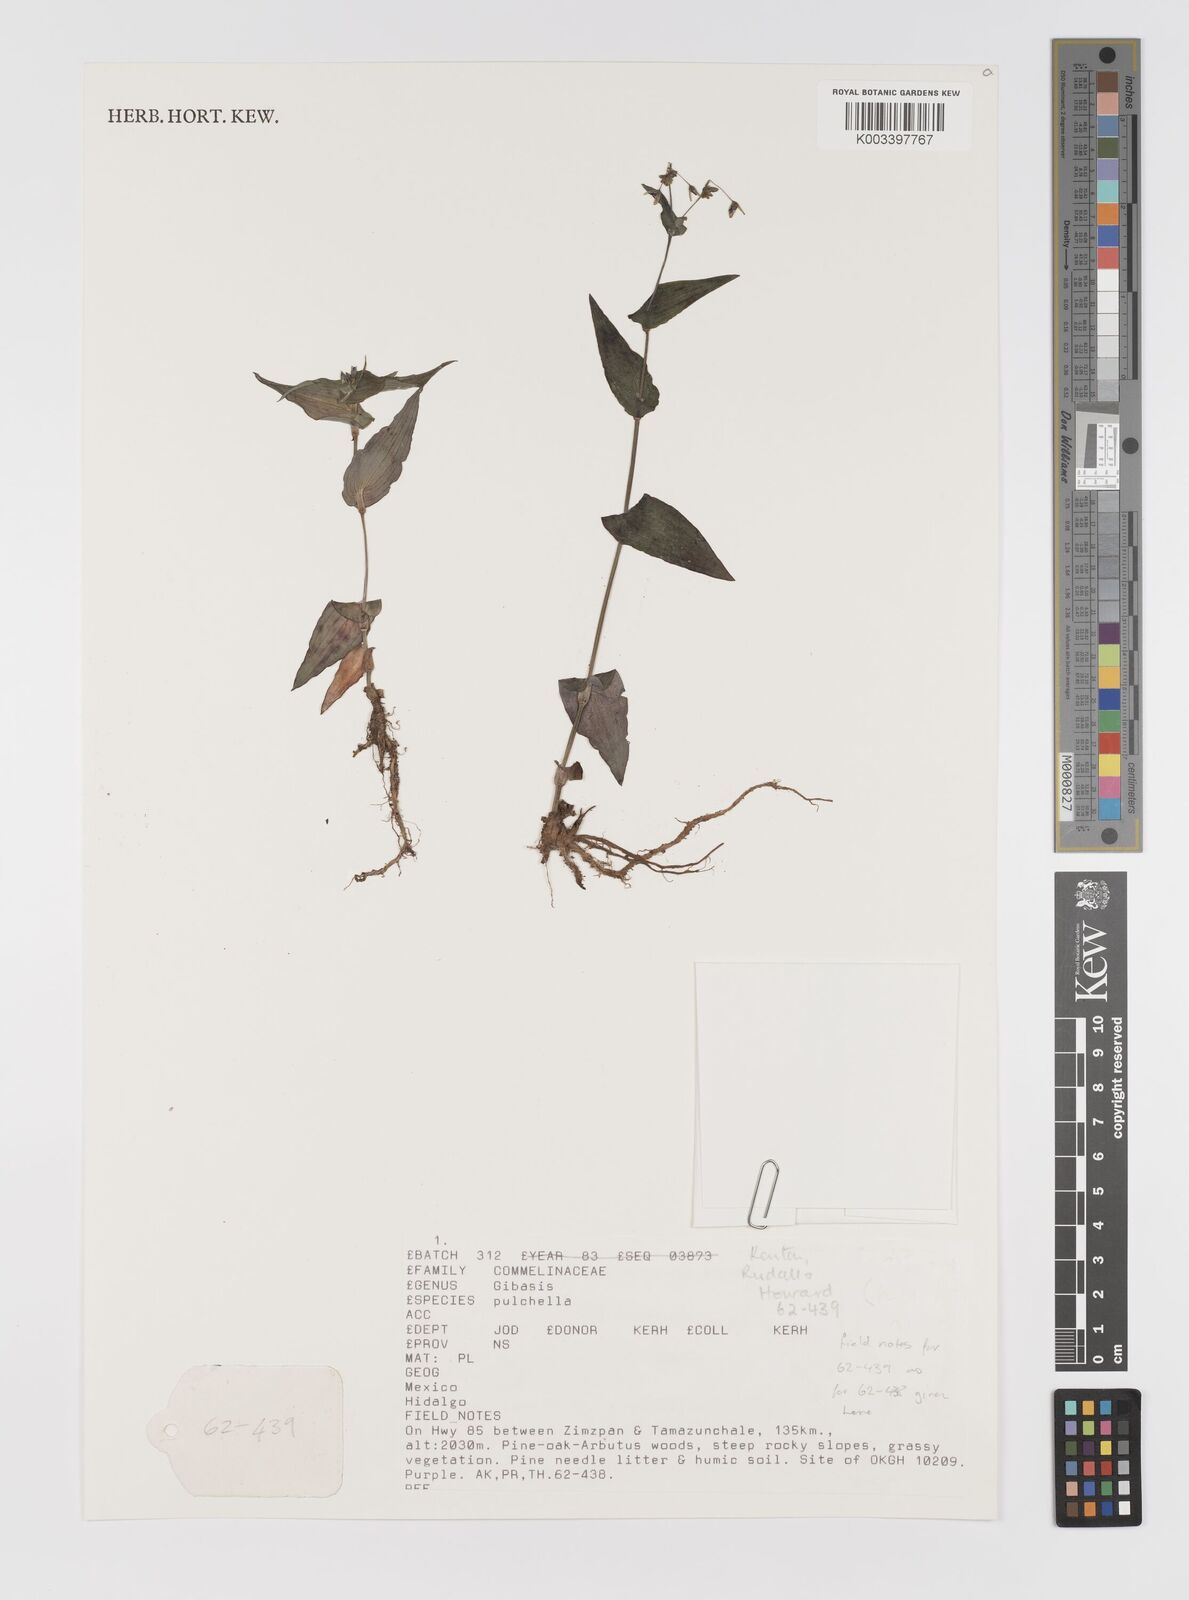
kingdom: Plantae
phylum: Tracheophyta
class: Liliopsida
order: Commelinales
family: Commelinaceae
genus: Gibasis
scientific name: Gibasis pulchella
